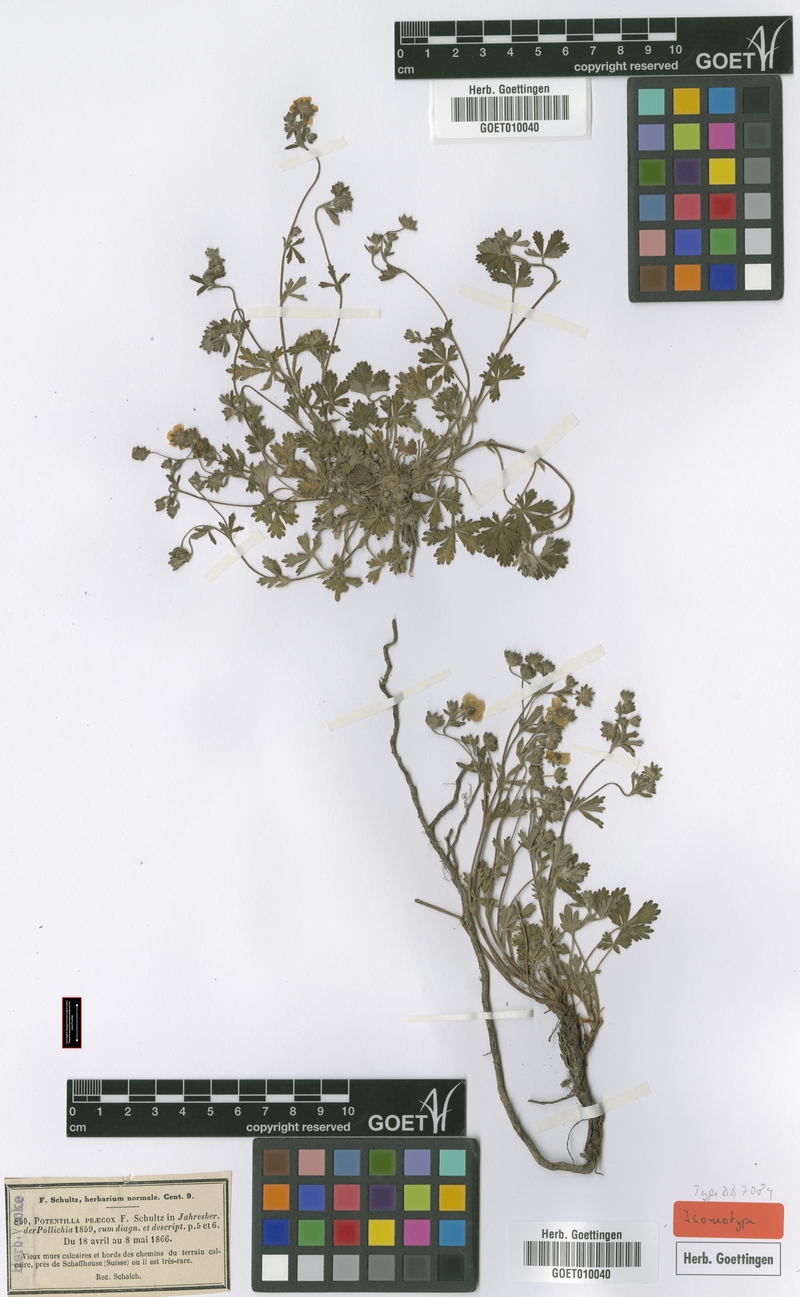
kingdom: Plantae
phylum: Tracheophyta
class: Magnoliopsida
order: Rosales
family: Rosaceae
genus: Potentilla
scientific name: Potentilla praecox
